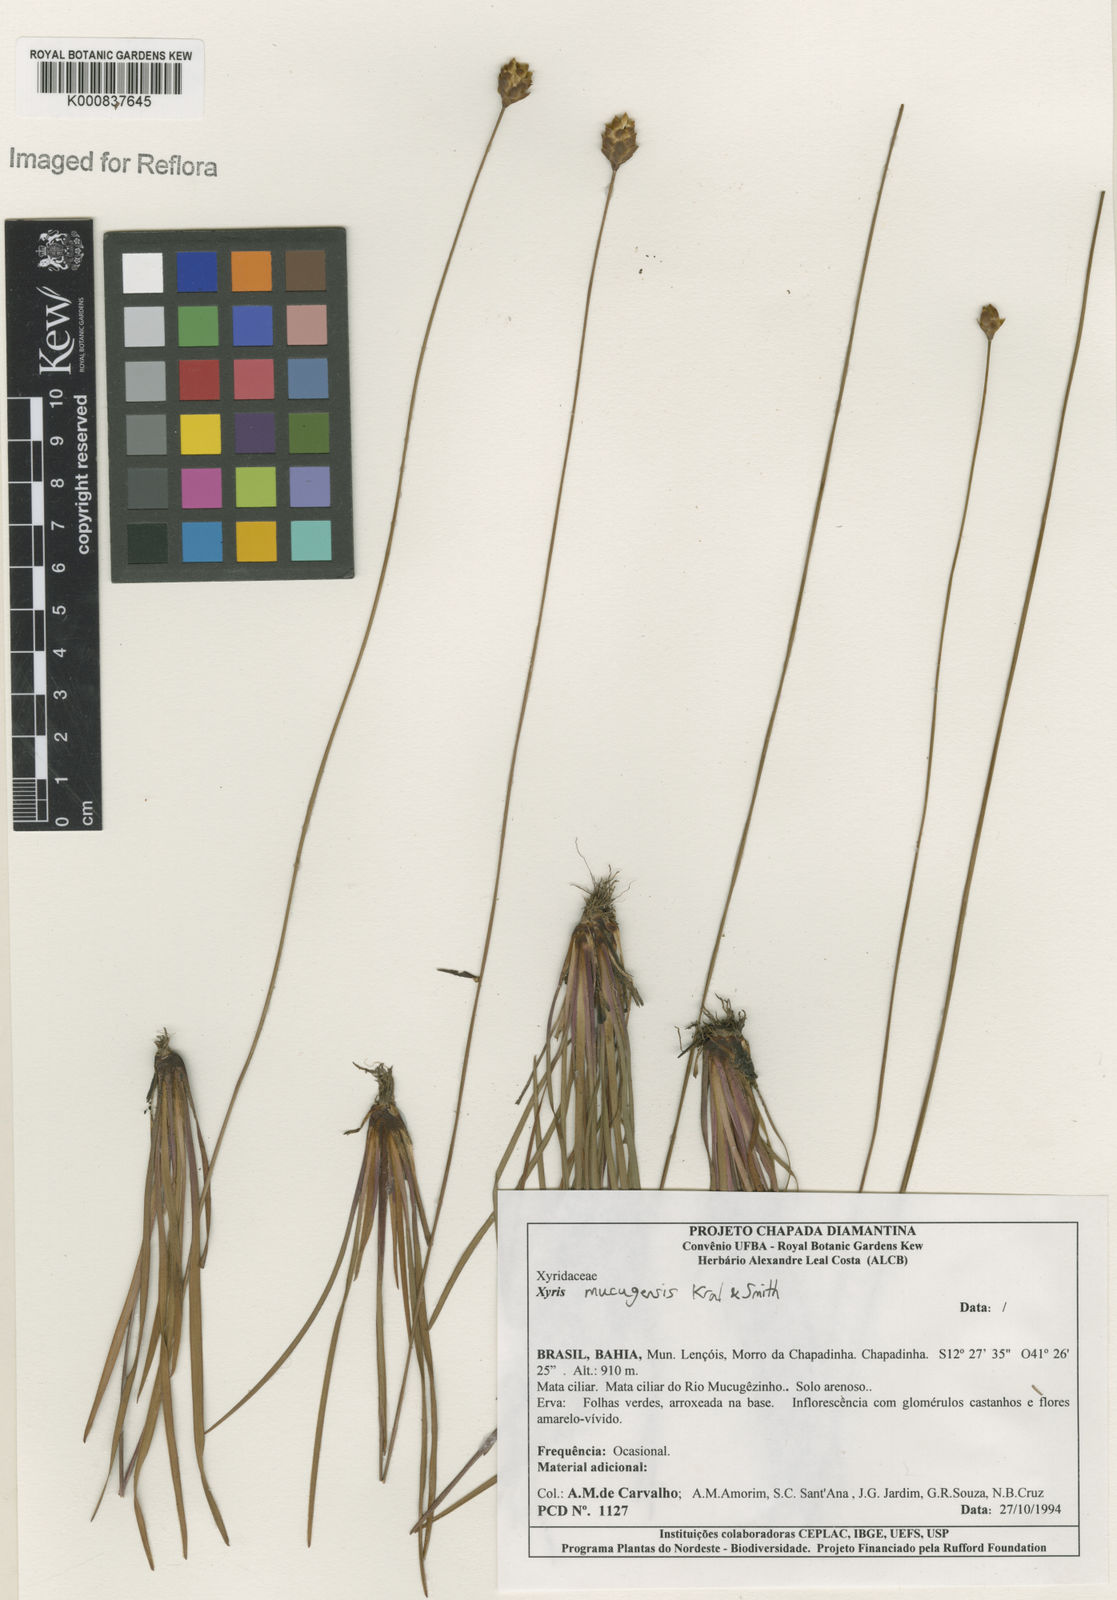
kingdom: Plantae
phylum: Tracheophyta
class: Liliopsida
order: Poales
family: Xyridaceae
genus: Xyris
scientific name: Xyris ciliata
